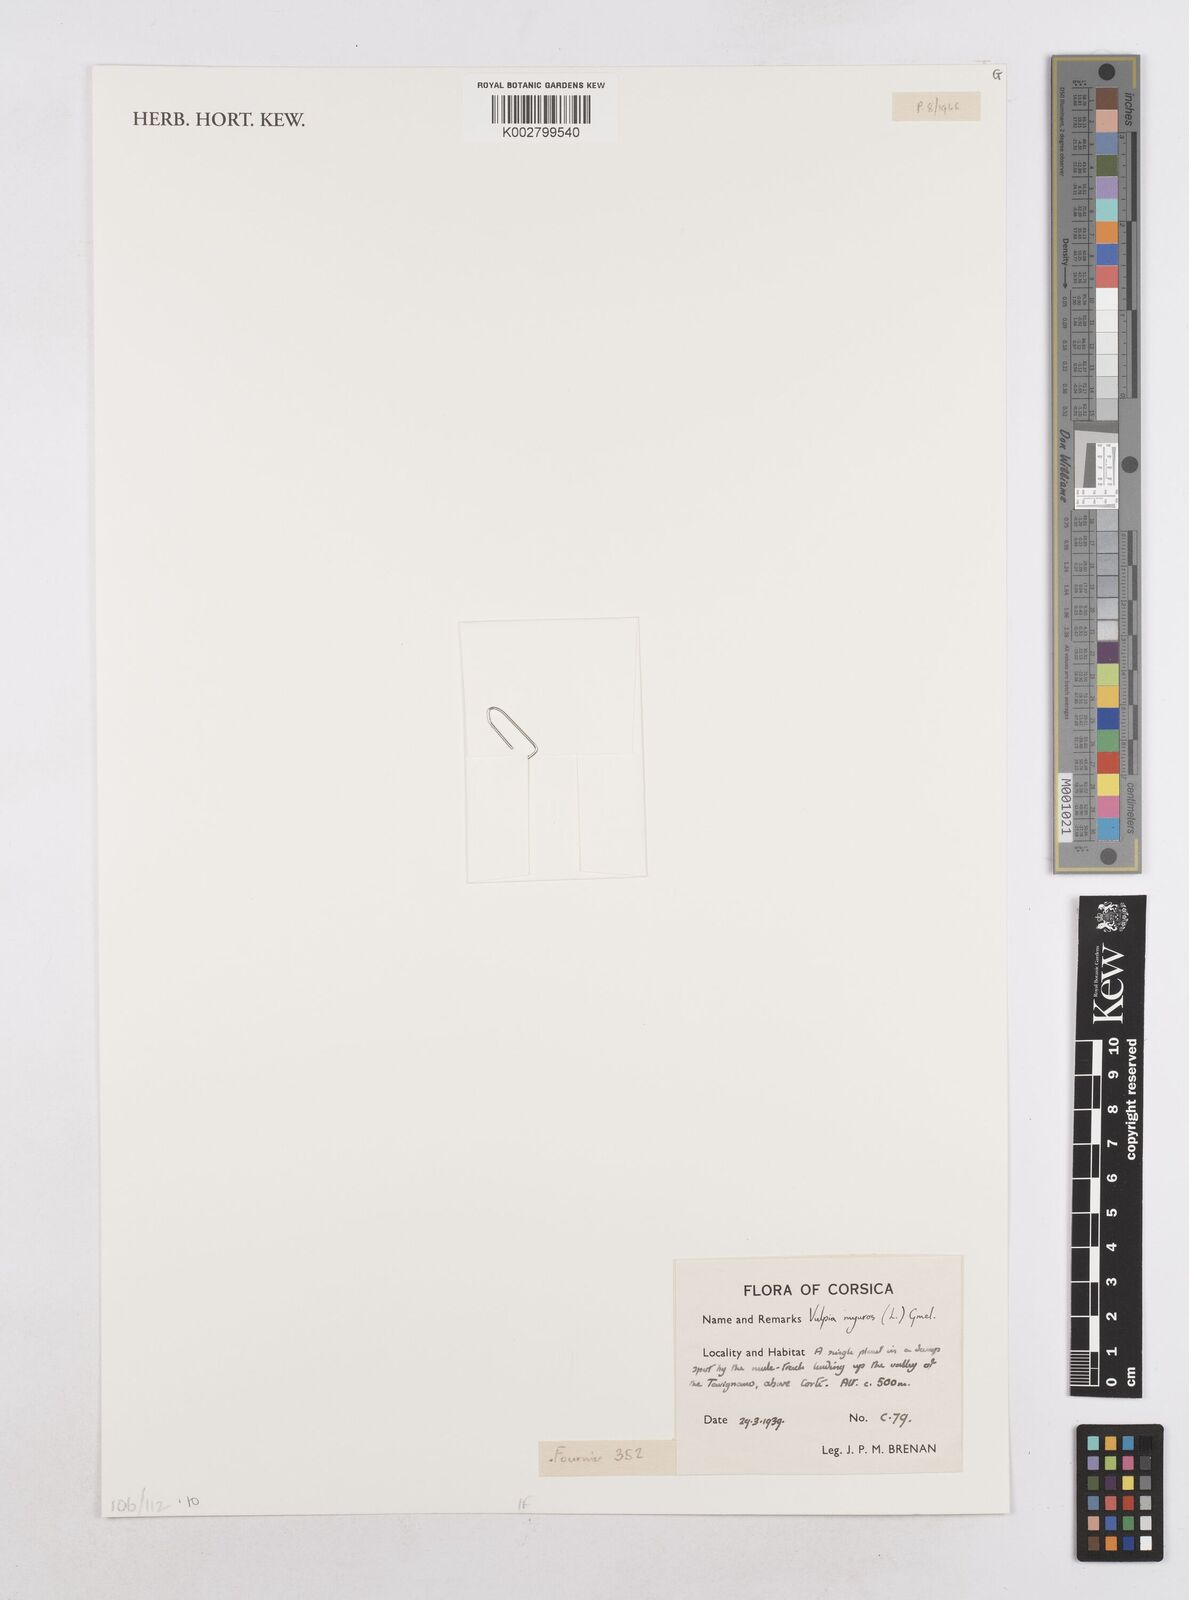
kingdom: Plantae
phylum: Tracheophyta
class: Liliopsida
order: Poales
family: Poaceae
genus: Festuca
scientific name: Festuca myuros
